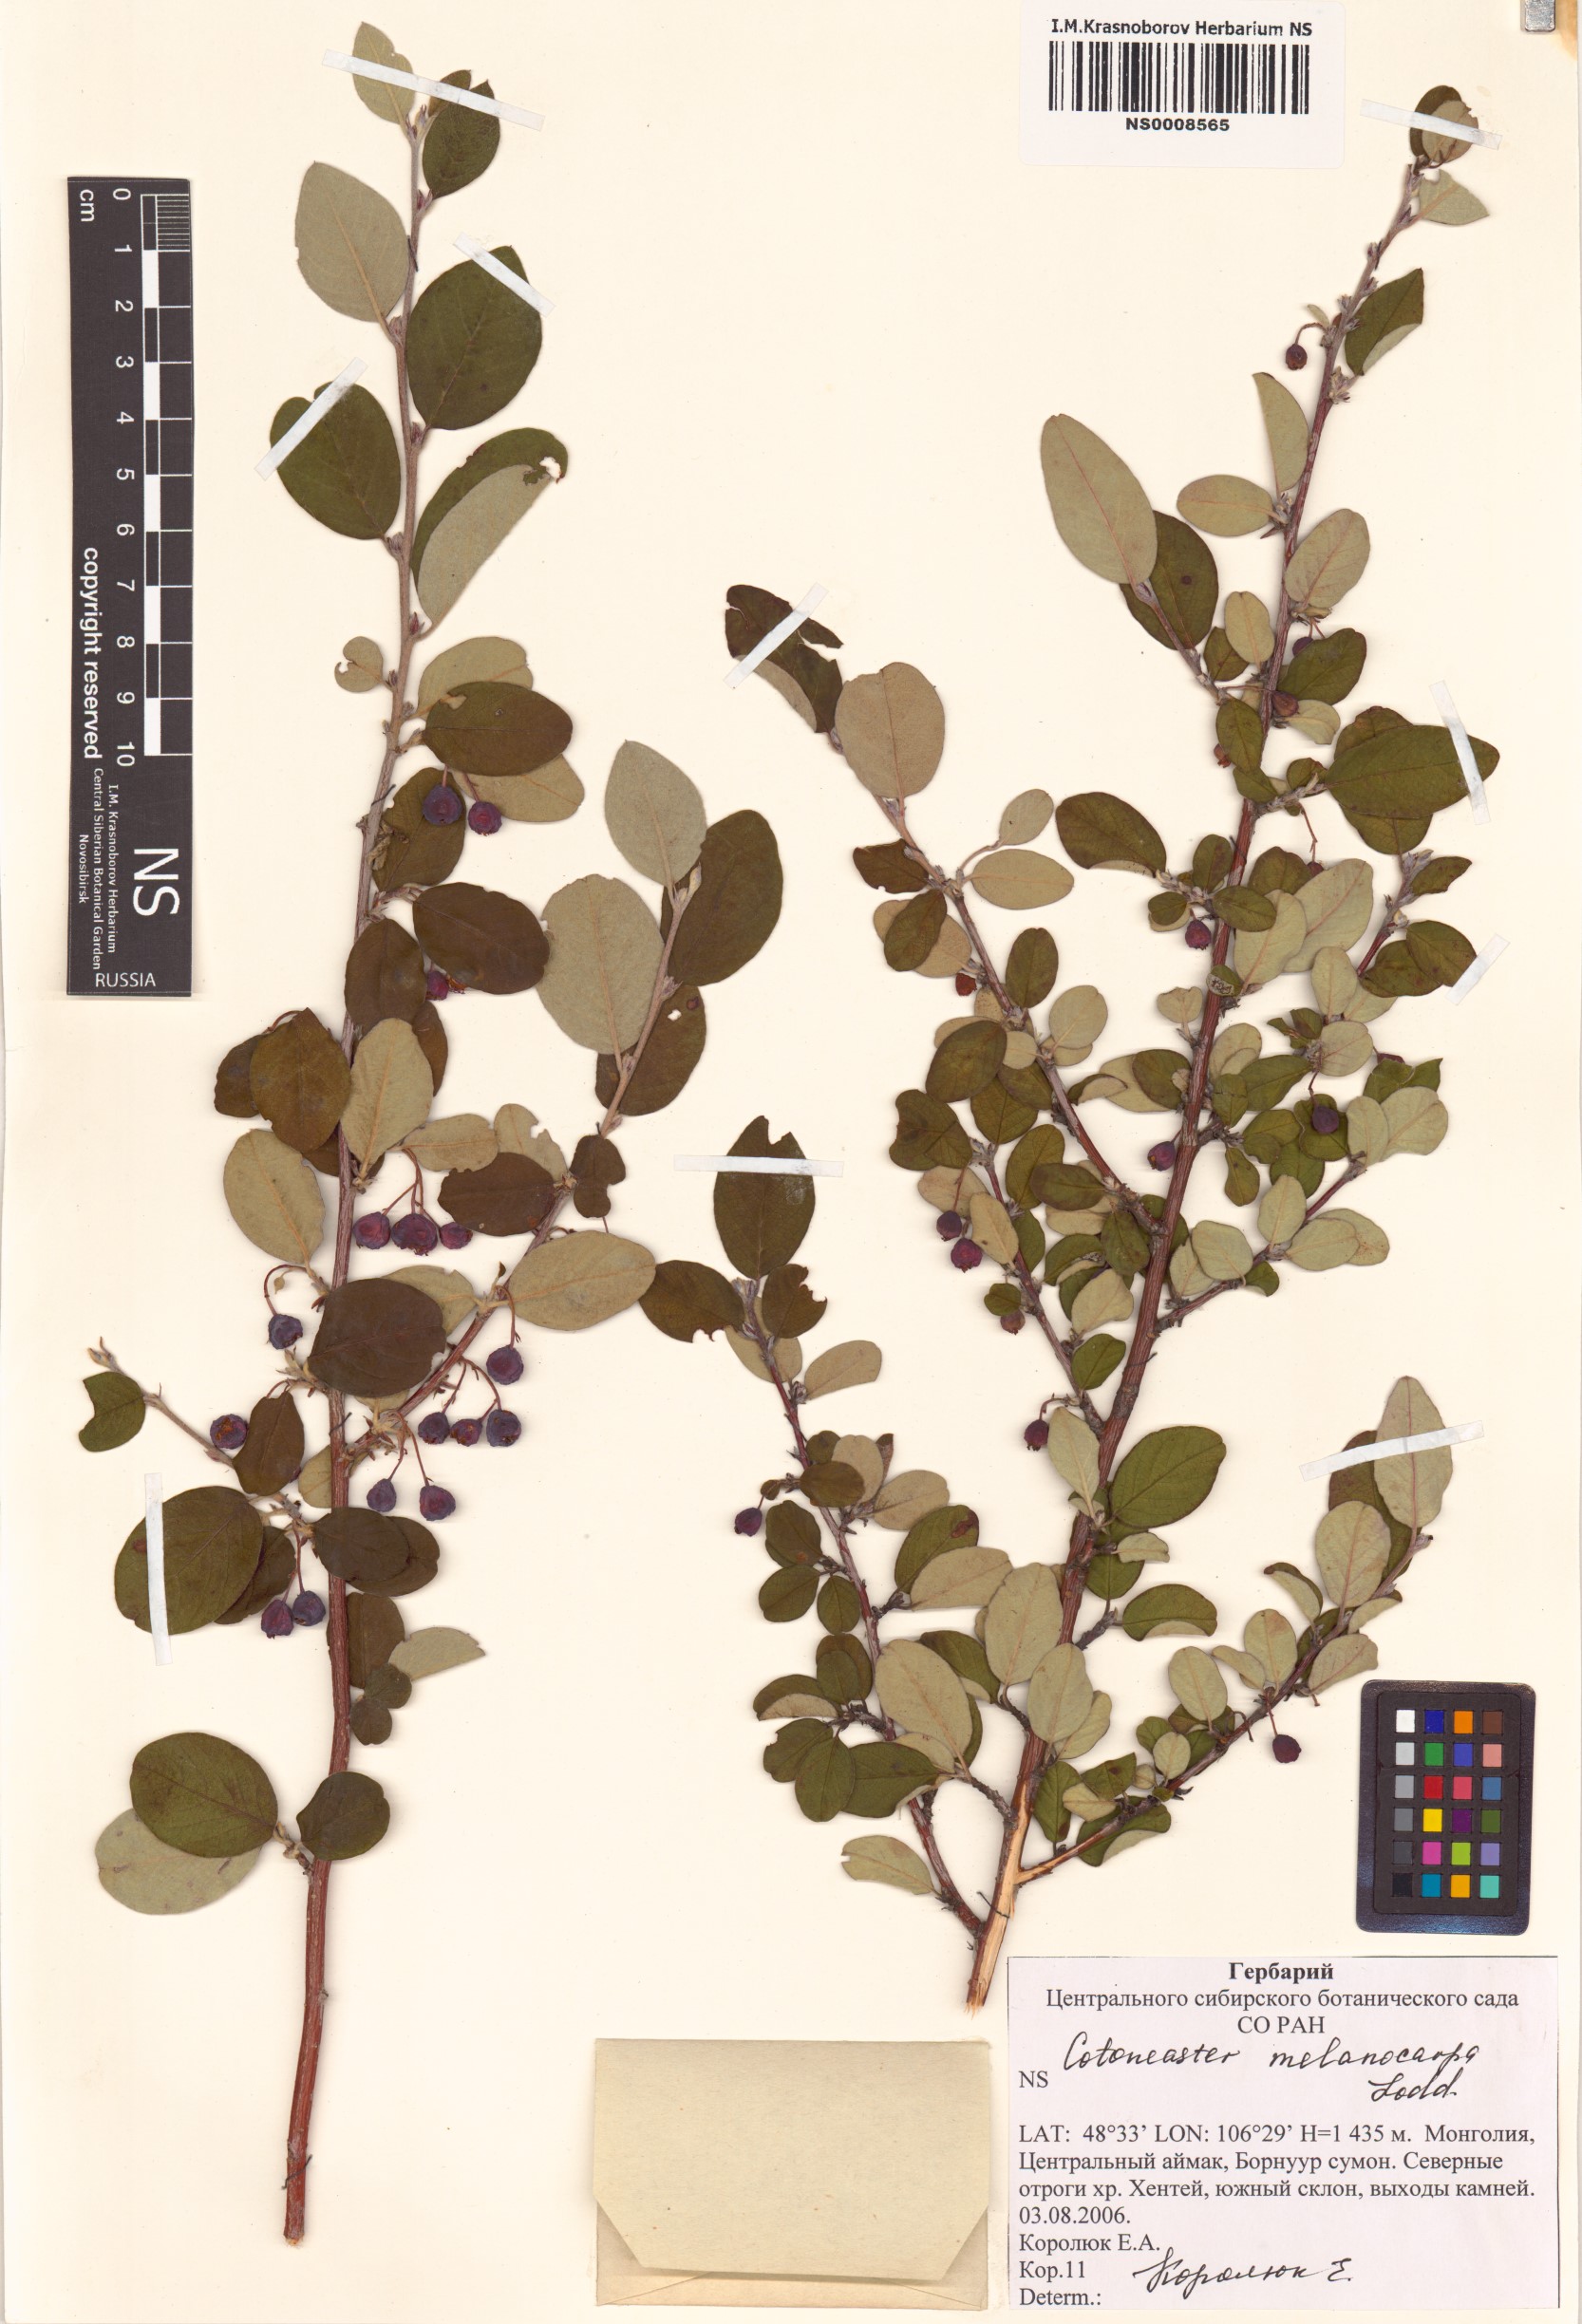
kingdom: Plantae
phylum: Tracheophyta
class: Magnoliopsida
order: Rosales
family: Rosaceae
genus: Cotoneaster
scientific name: Cotoneaster melanocarpus
